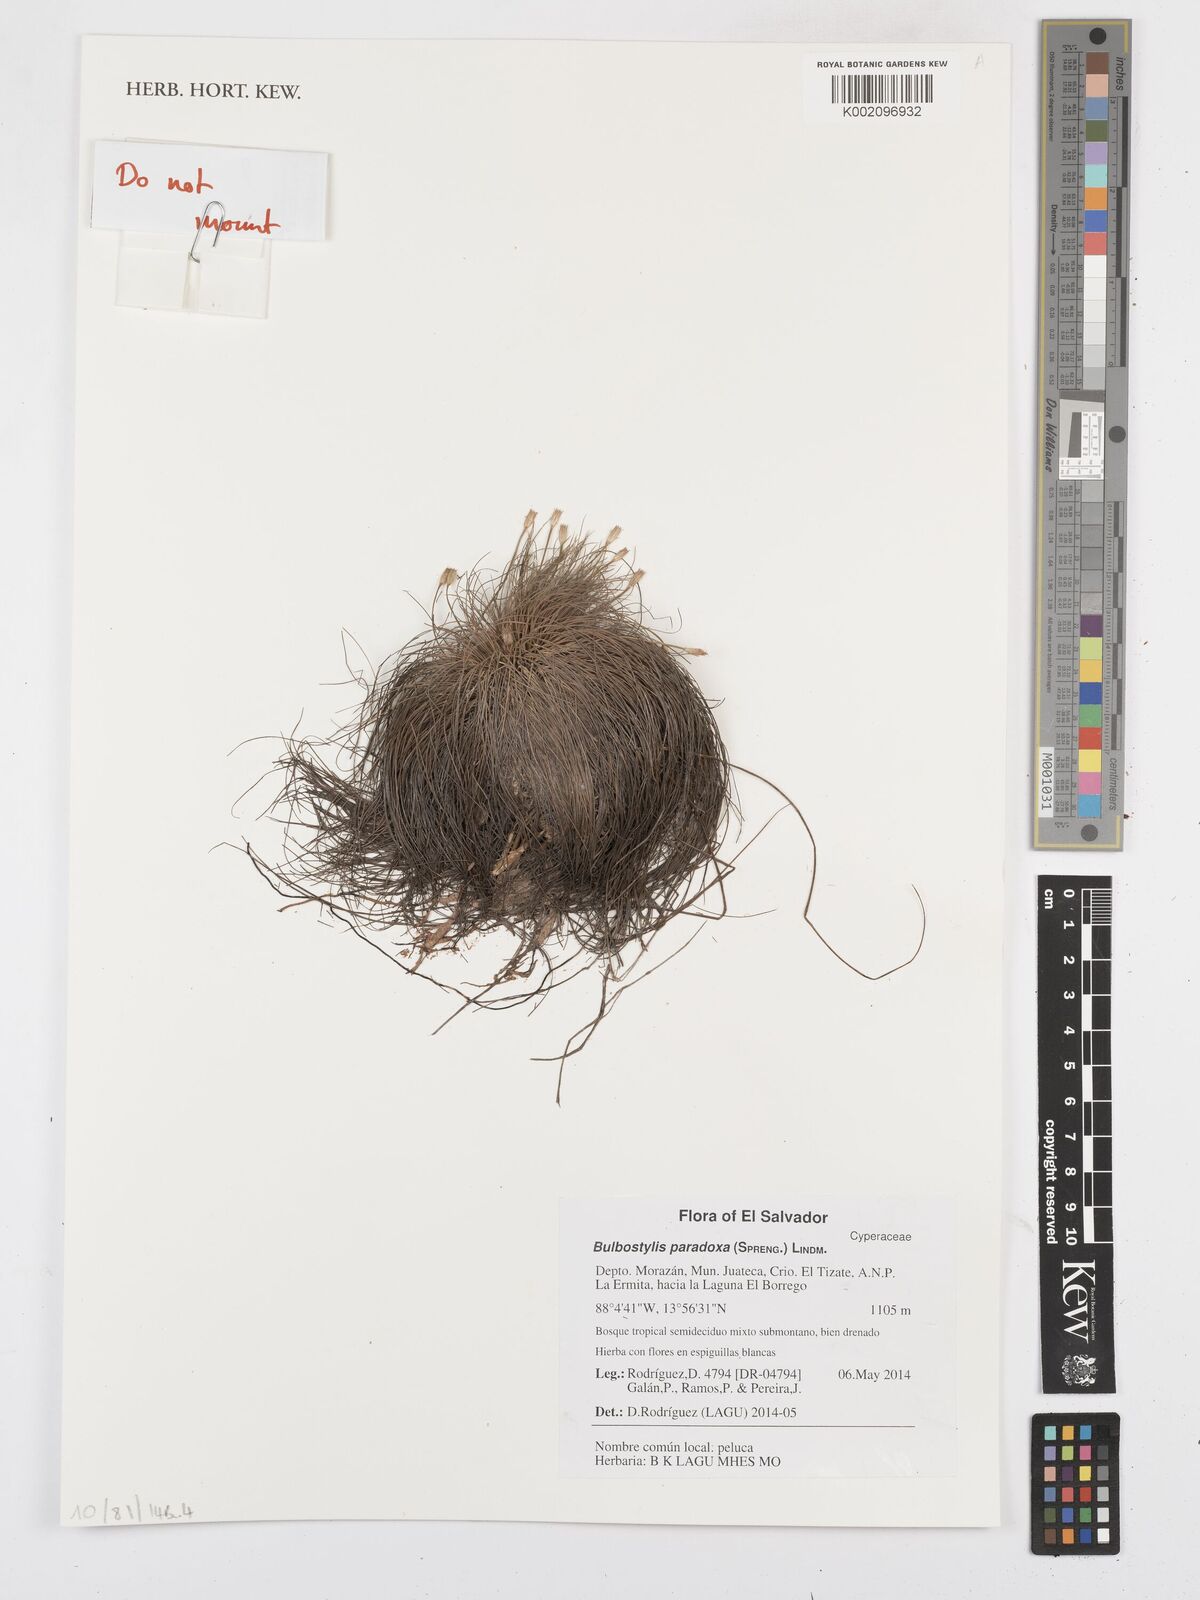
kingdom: Plantae
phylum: Tracheophyta
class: Liliopsida
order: Poales
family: Cyperaceae
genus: Bulbostylis
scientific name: Bulbostylis paradoxa
